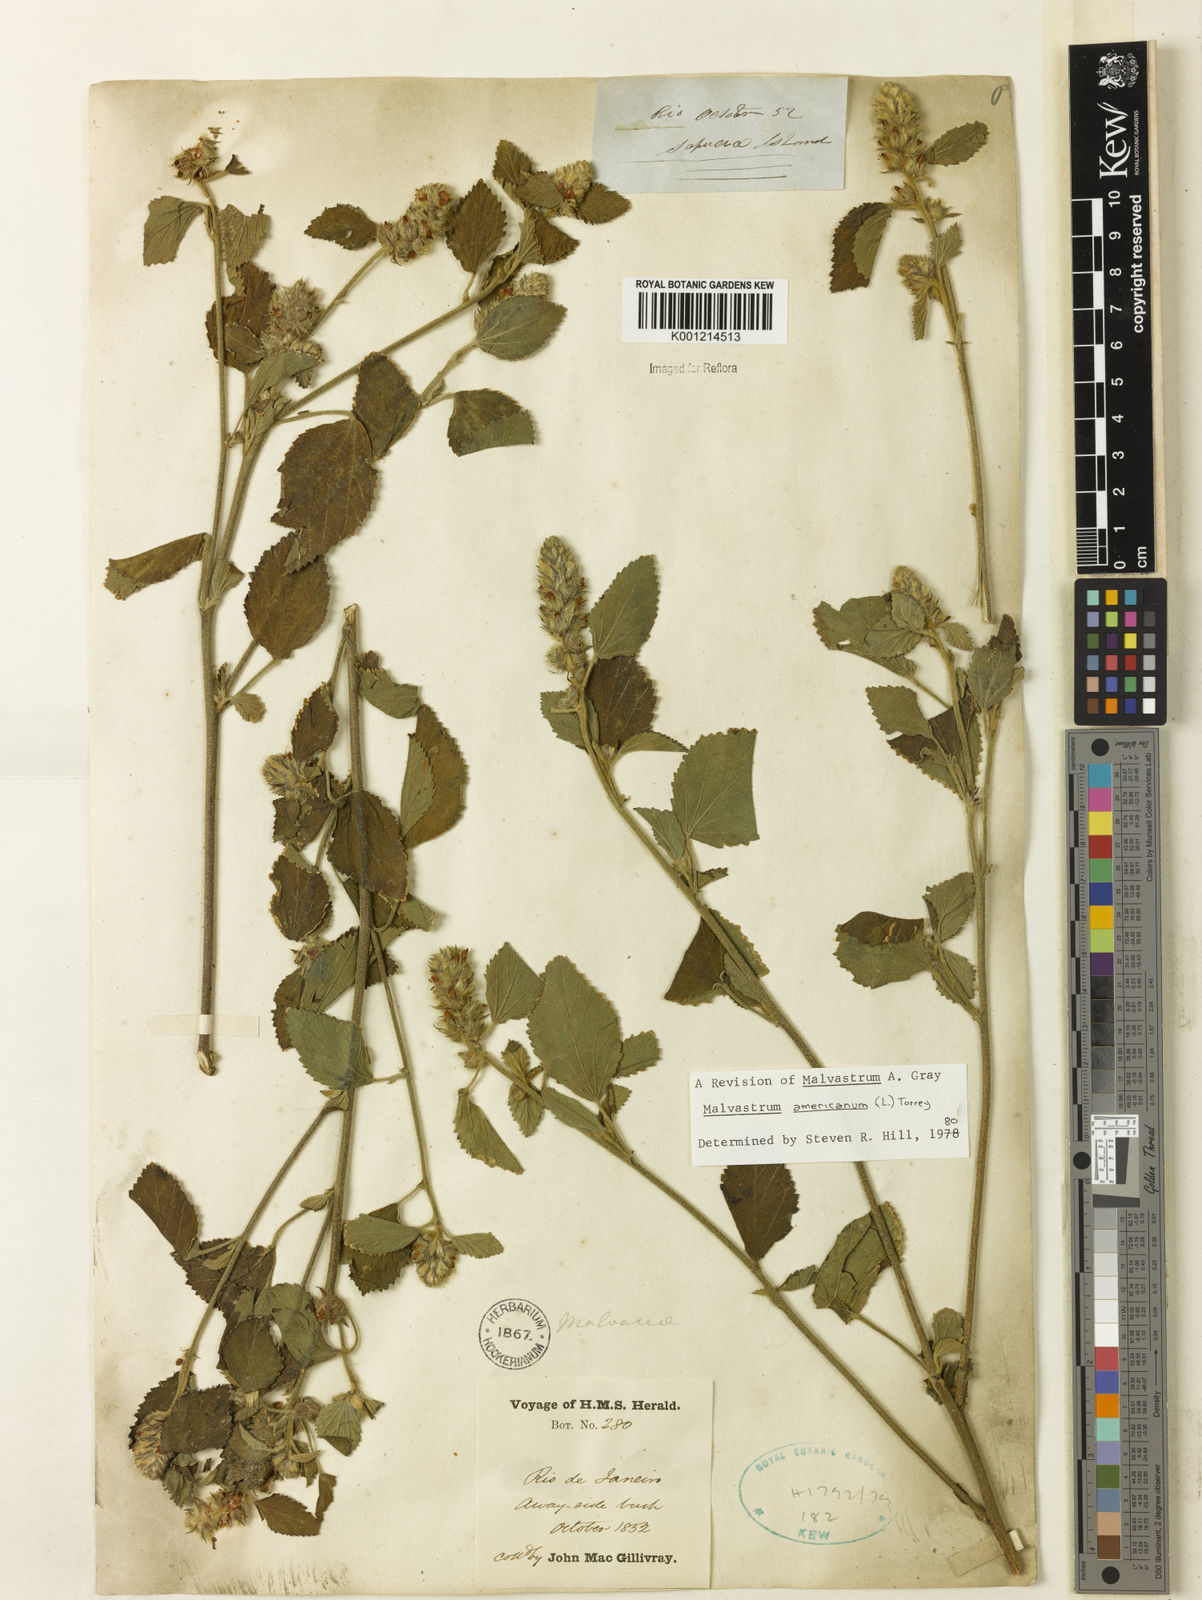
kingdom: Plantae
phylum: Tracheophyta
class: Magnoliopsida
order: Malvales
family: Malvaceae
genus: Malvastrum
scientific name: Malvastrum americanum
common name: Spiked malvastrum
